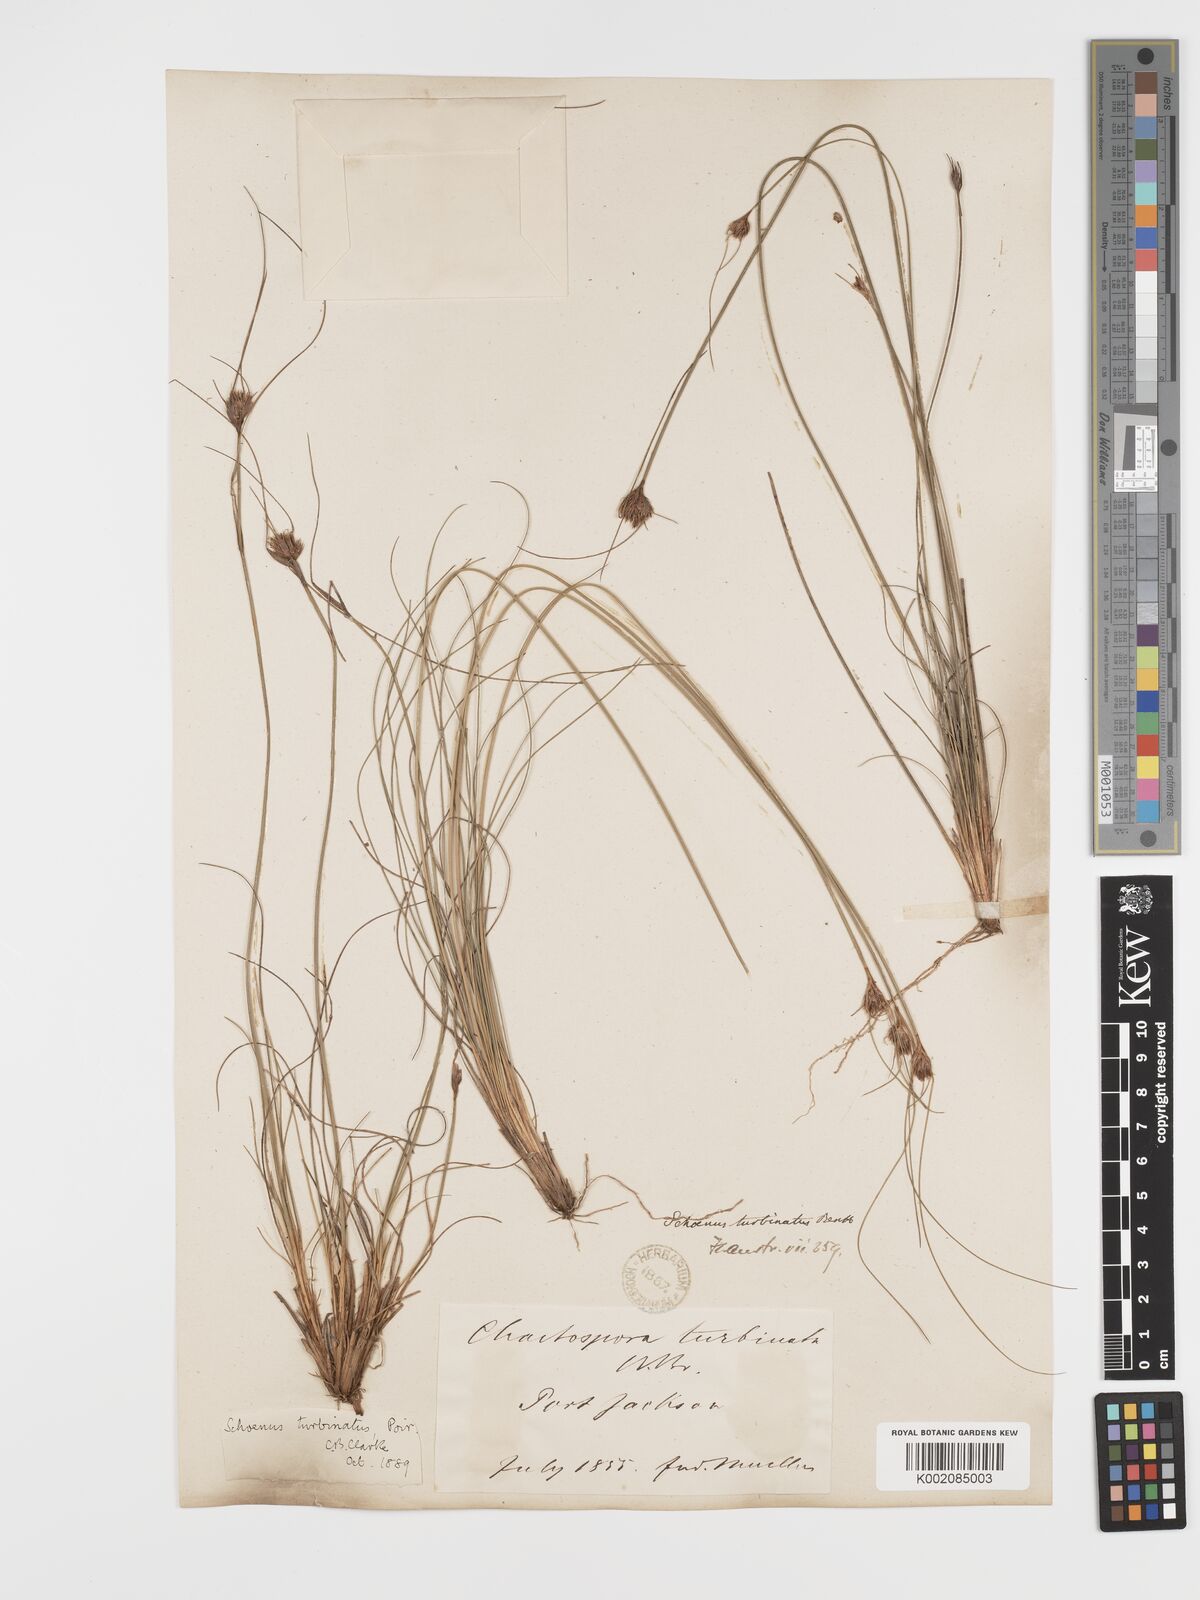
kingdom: Plantae
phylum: Tracheophyta
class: Liliopsida
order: Poales
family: Cyperaceae
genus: Schoenus
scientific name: Schoenus turbinatus
